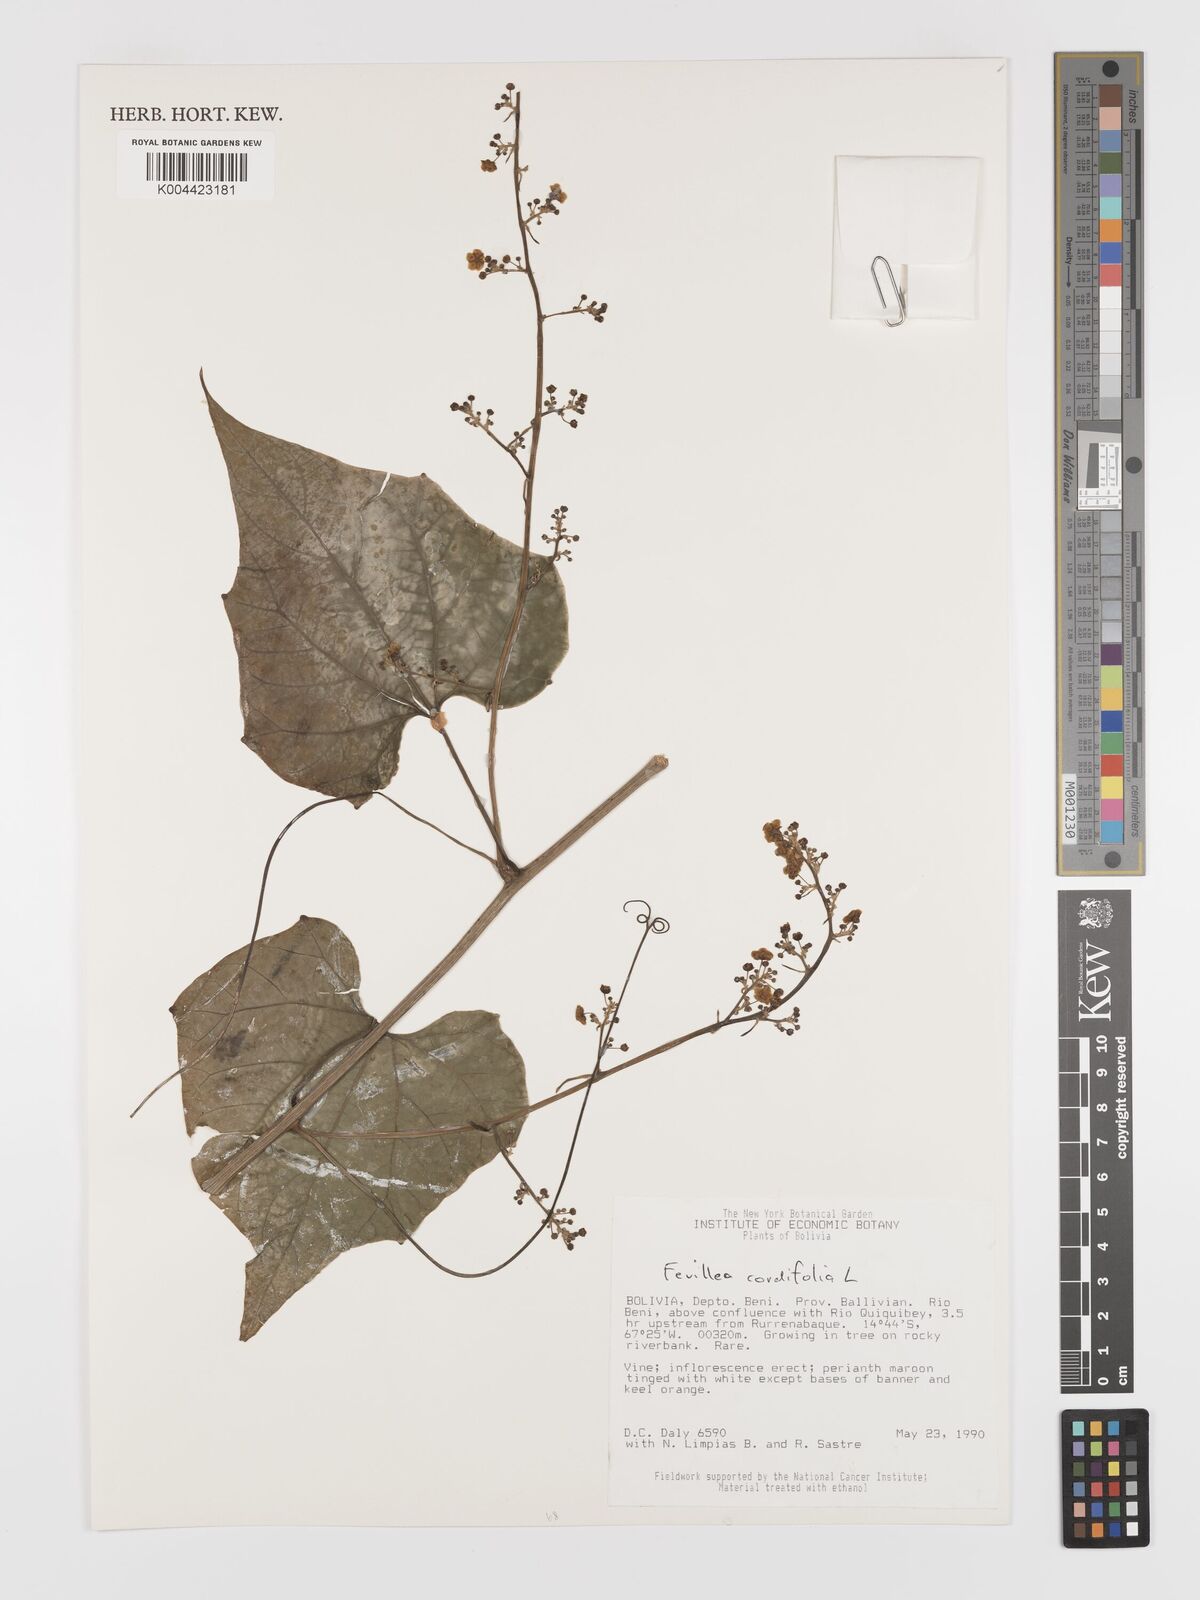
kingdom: Plantae
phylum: Tracheophyta
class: Magnoliopsida
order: Cucurbitales
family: Cucurbitaceae
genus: Fevillea
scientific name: Fevillea
